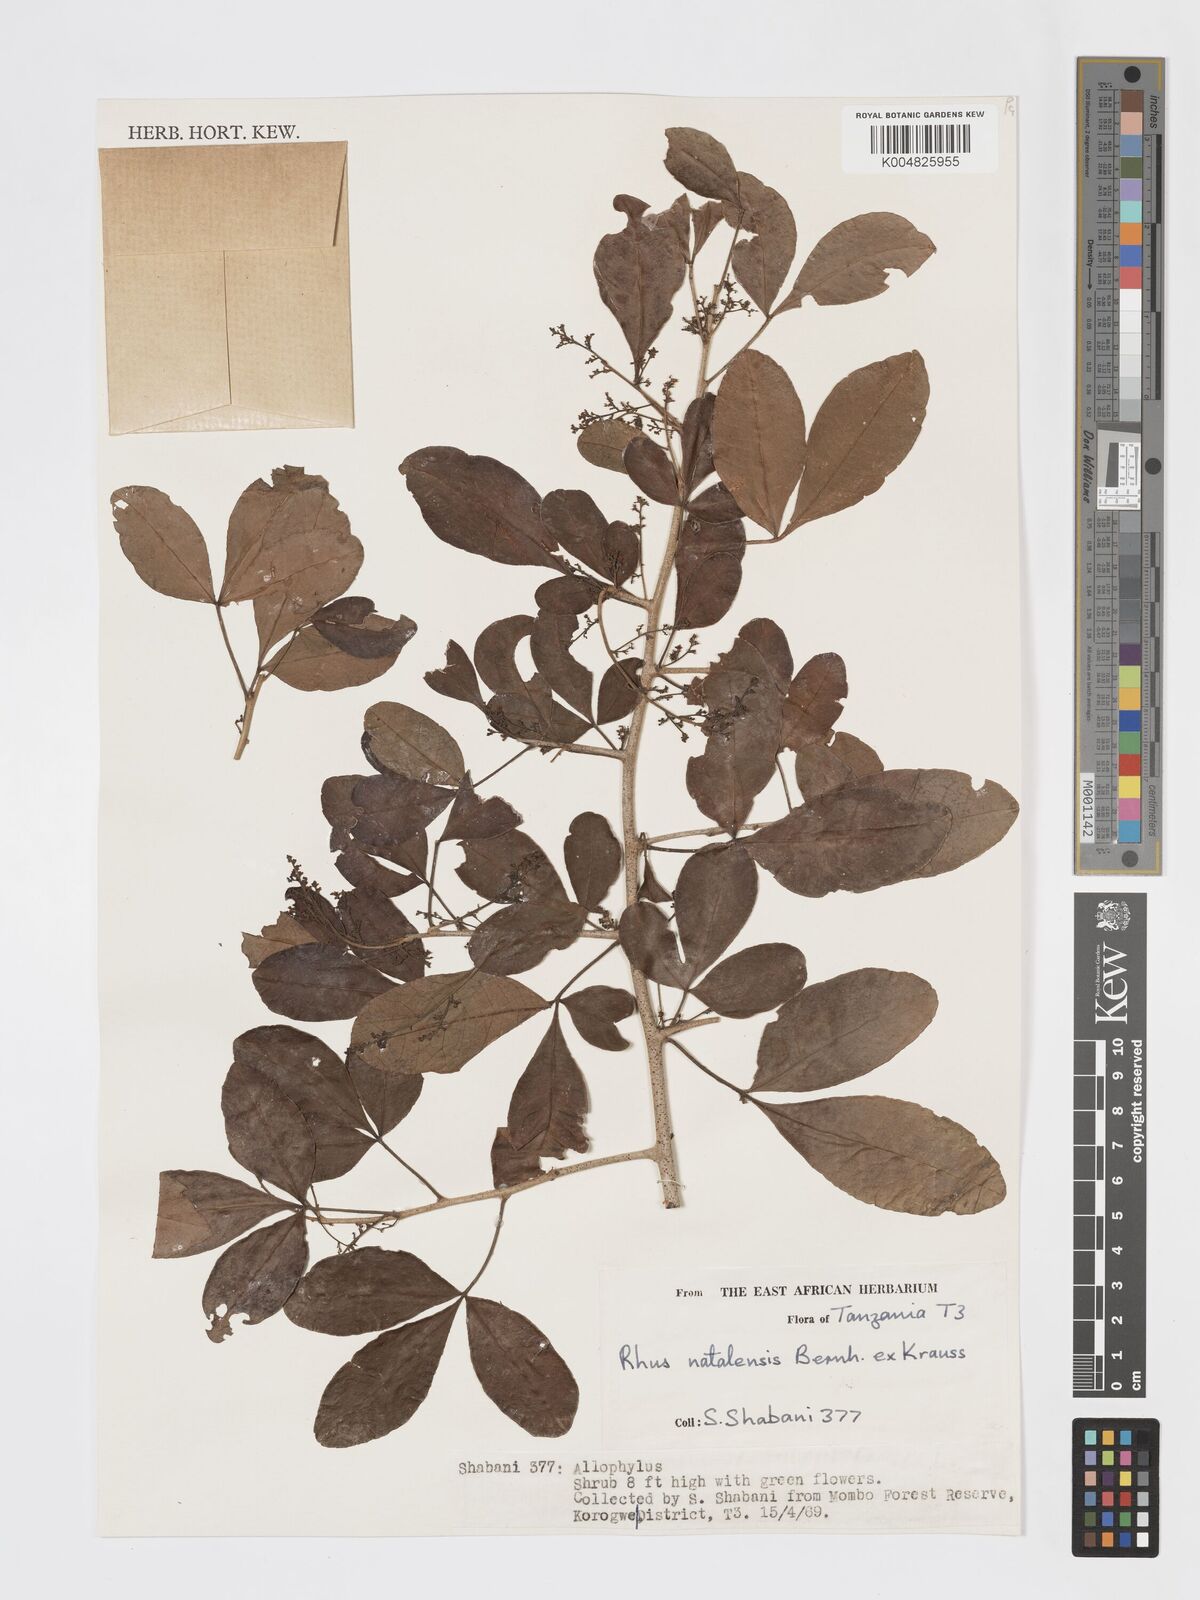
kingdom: Plantae
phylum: Tracheophyta
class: Magnoliopsida
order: Sapindales
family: Anacardiaceae
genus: Searsia
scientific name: Searsia natalensis
